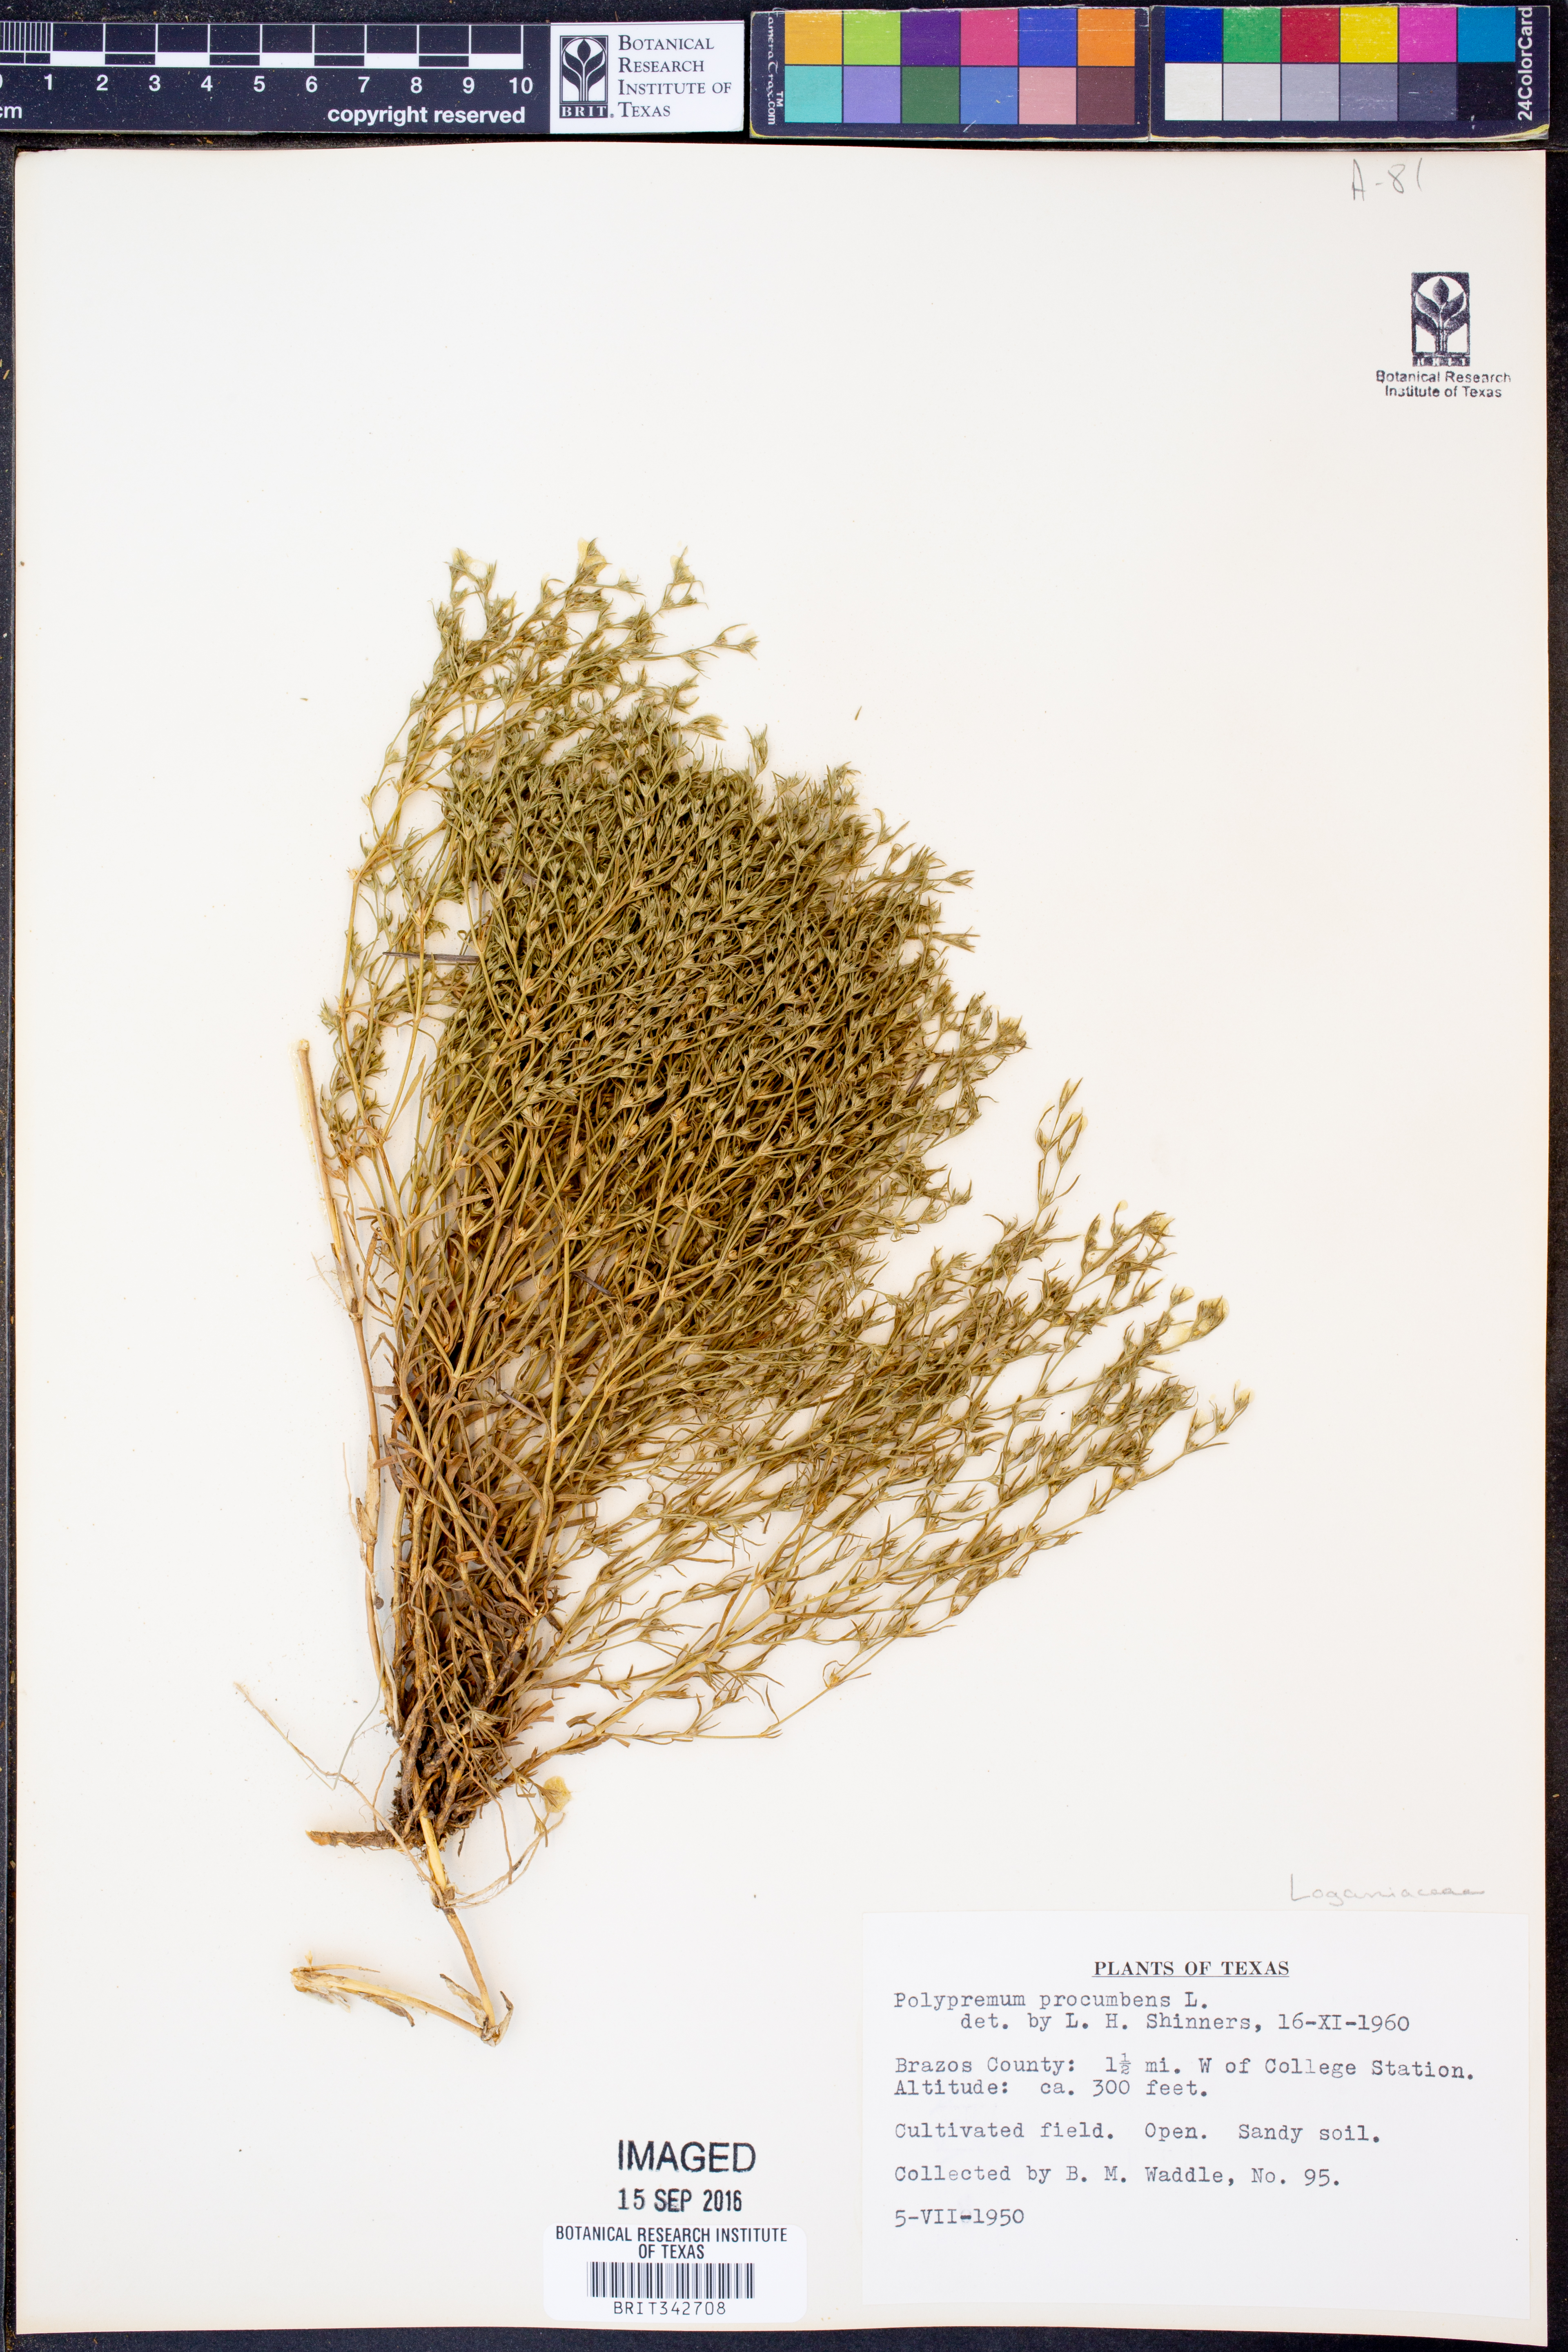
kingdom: Plantae
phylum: Tracheophyta
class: Magnoliopsida
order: Lamiales
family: Tetrachondraceae
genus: Polypremum
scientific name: Polypremum procumbens
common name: Juniper-leaf
